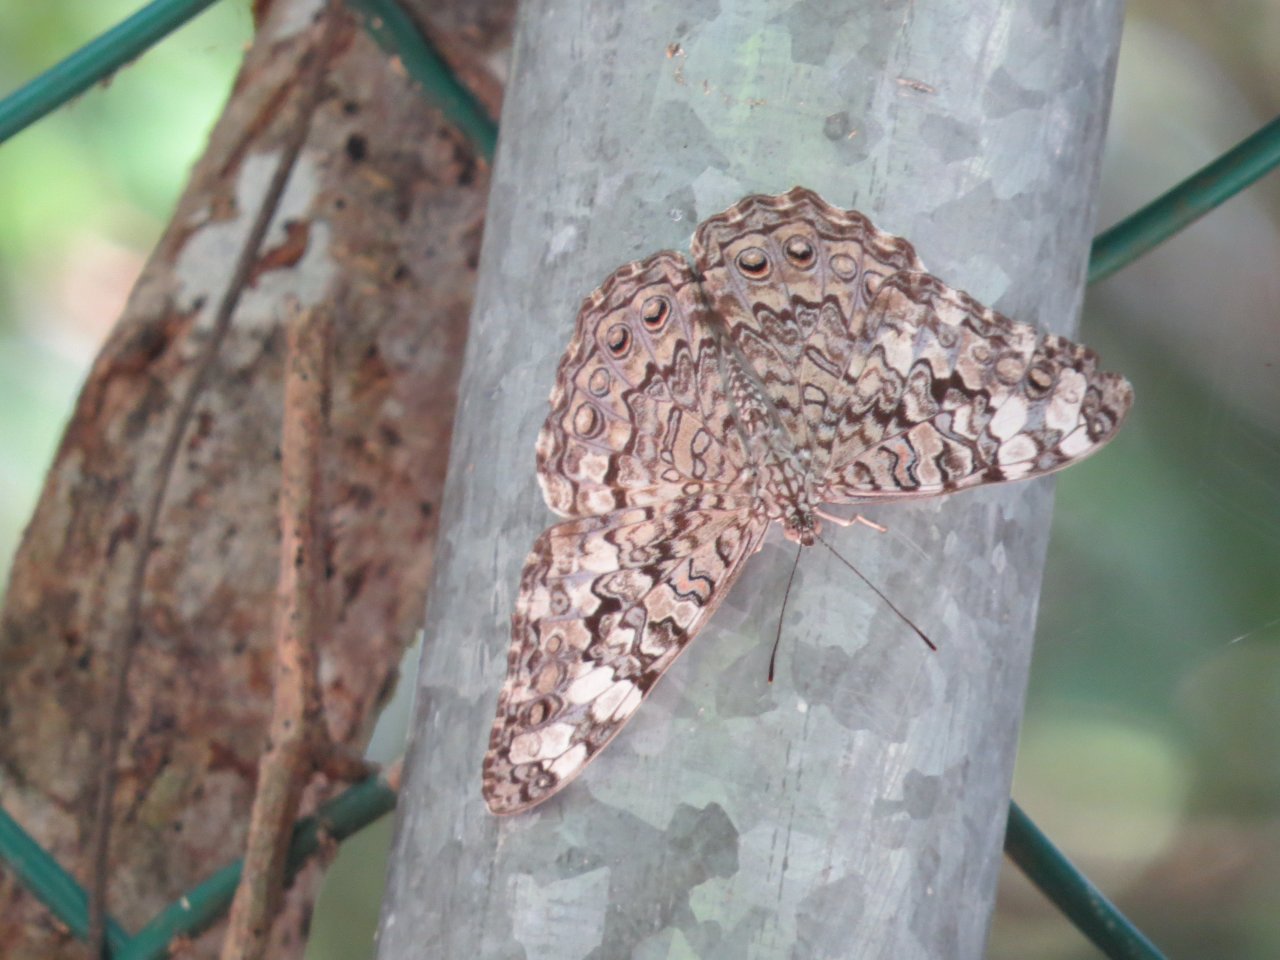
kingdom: Animalia
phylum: Arthropoda
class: Insecta
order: Lepidoptera
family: Nymphalidae
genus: Hamadryas
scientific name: Hamadryas februa
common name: Gray Cracker
